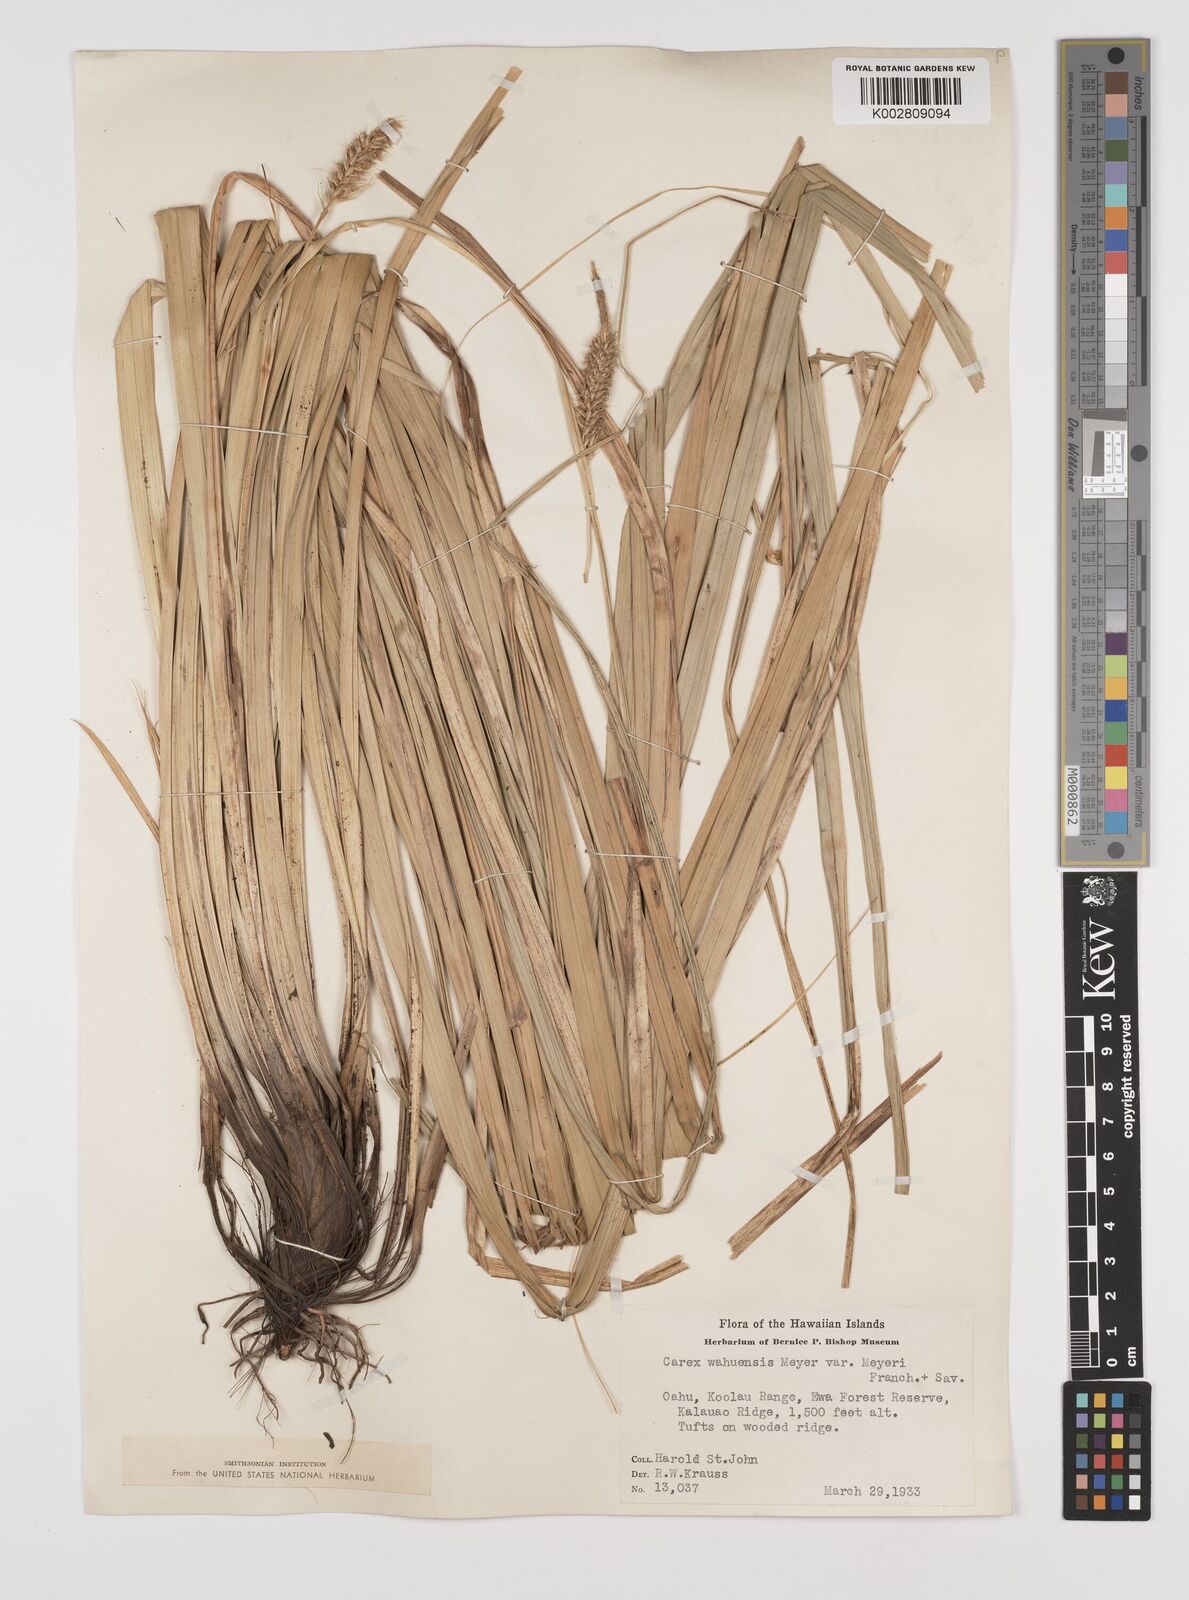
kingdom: Plantae
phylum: Tracheophyta
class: Liliopsida
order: Poales
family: Cyperaceae
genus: Carex
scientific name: Carex wahuensis
